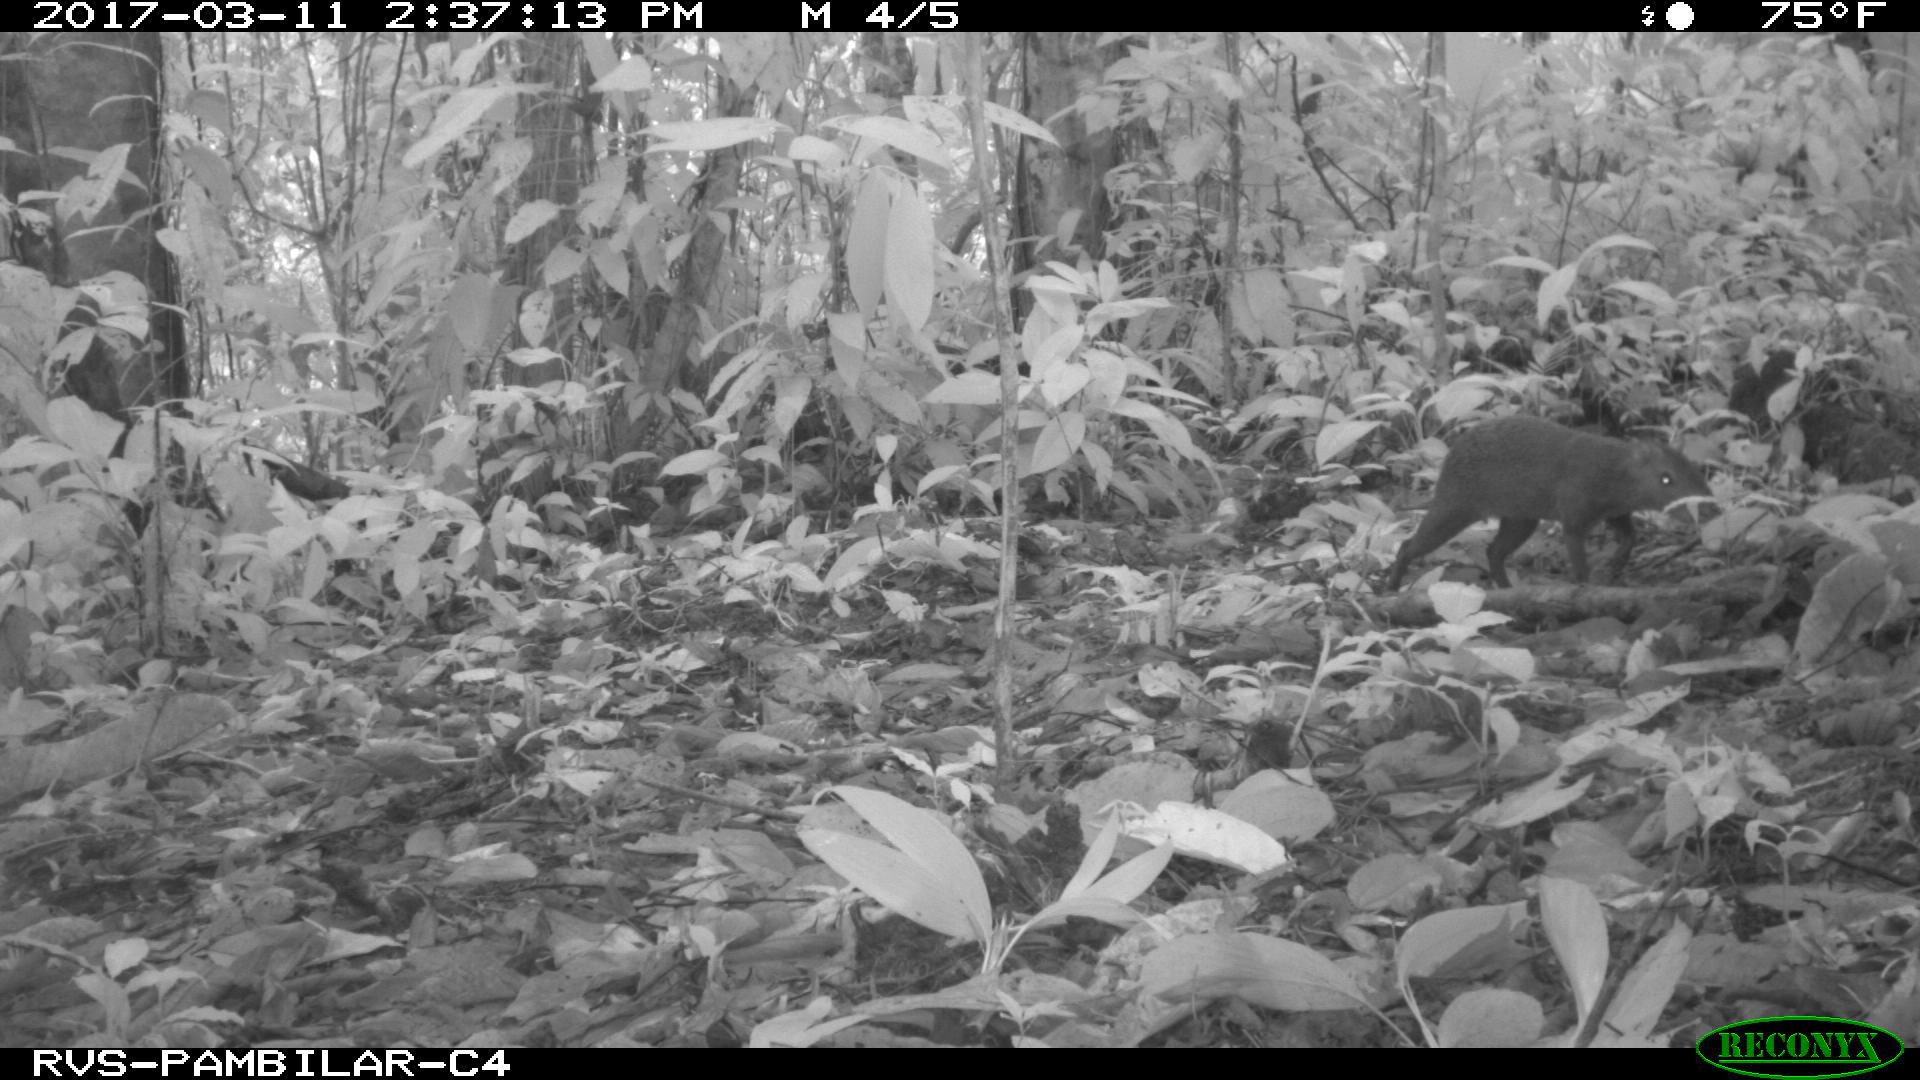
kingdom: Animalia
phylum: Chordata
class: Mammalia
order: Rodentia
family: Dasyproctidae
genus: Dasyprocta
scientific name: Dasyprocta punctata
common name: Central american agouti
